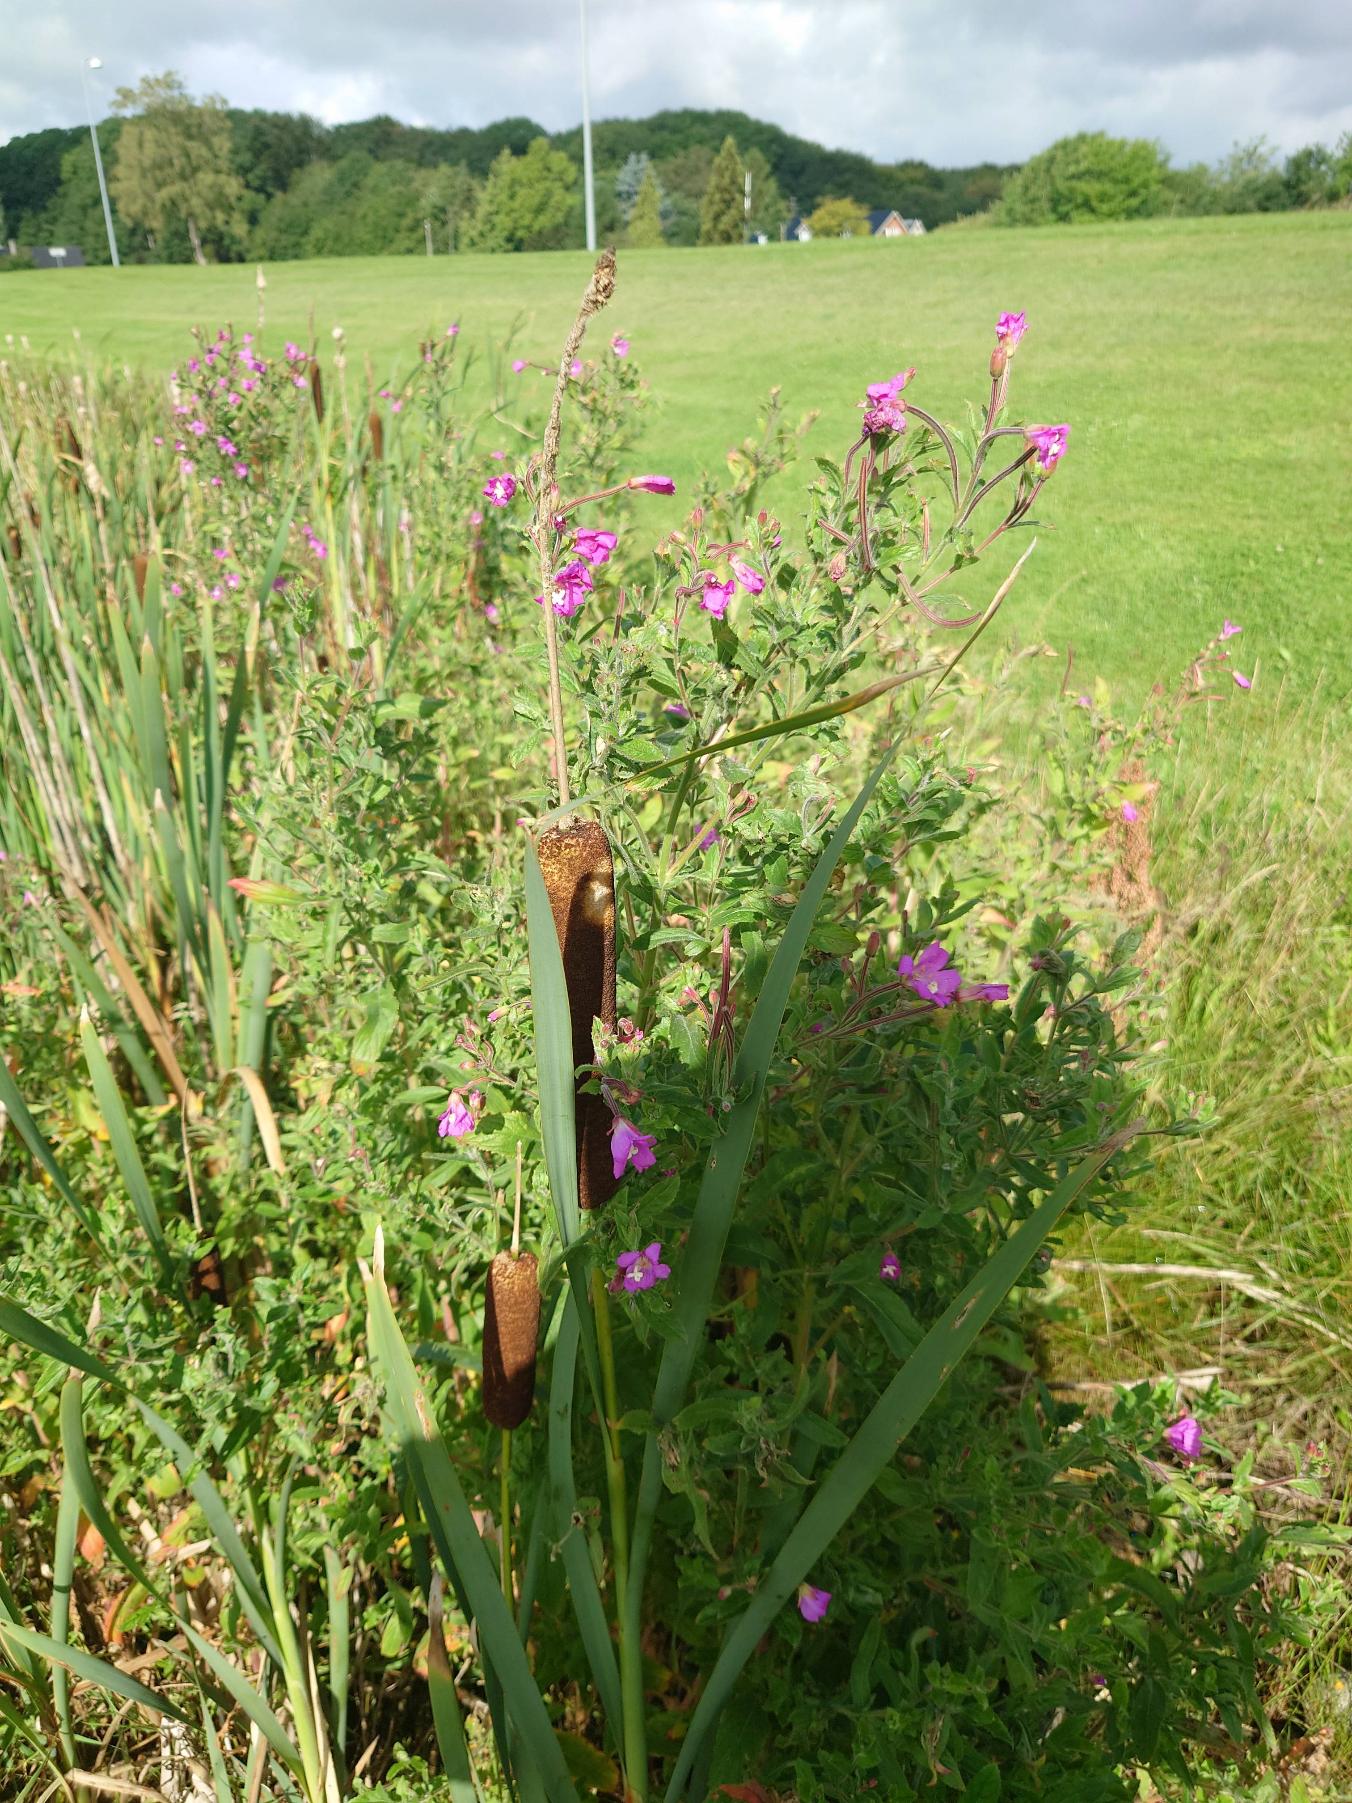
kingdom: Plantae
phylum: Tracheophyta
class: Magnoliopsida
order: Myrtales
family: Onagraceae
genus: Epilobium
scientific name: Epilobium hirsutum
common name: Lådden dueurt
